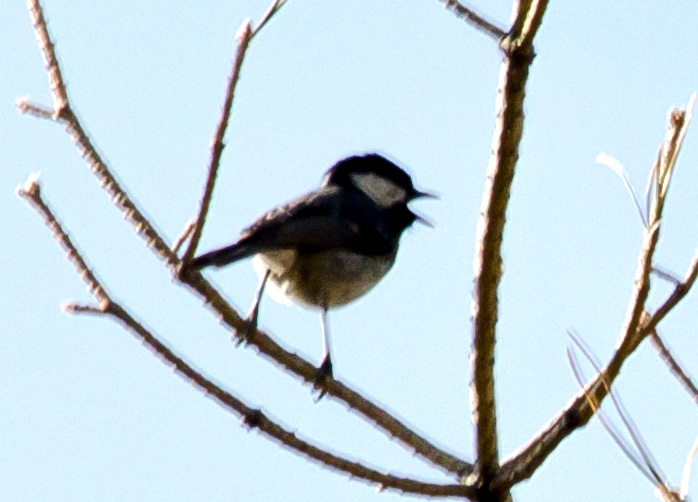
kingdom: Animalia
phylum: Chordata
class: Aves
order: Passeriformes
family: Paridae
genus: Periparus
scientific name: Periparus ater
